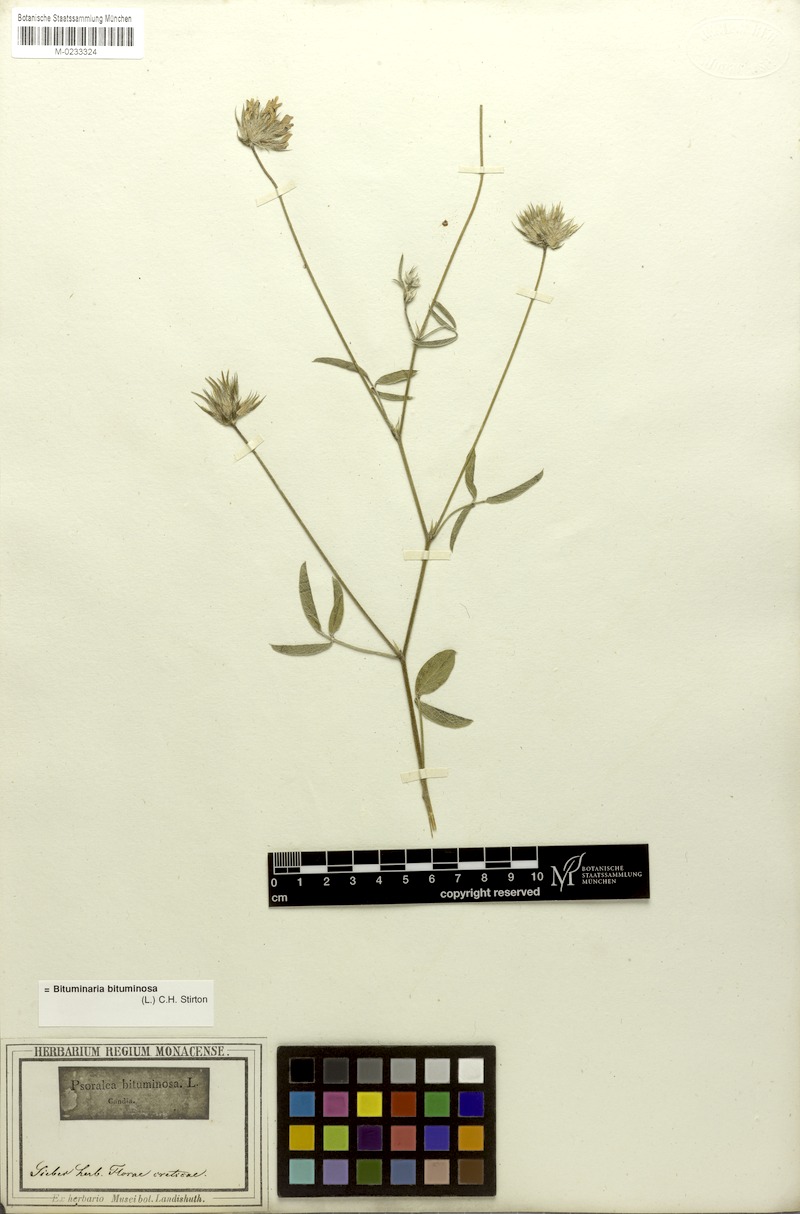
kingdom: Plantae
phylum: Tracheophyta
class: Magnoliopsida
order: Fabales
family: Fabaceae
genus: Bituminaria
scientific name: Bituminaria bituminosa
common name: Arabian pea
